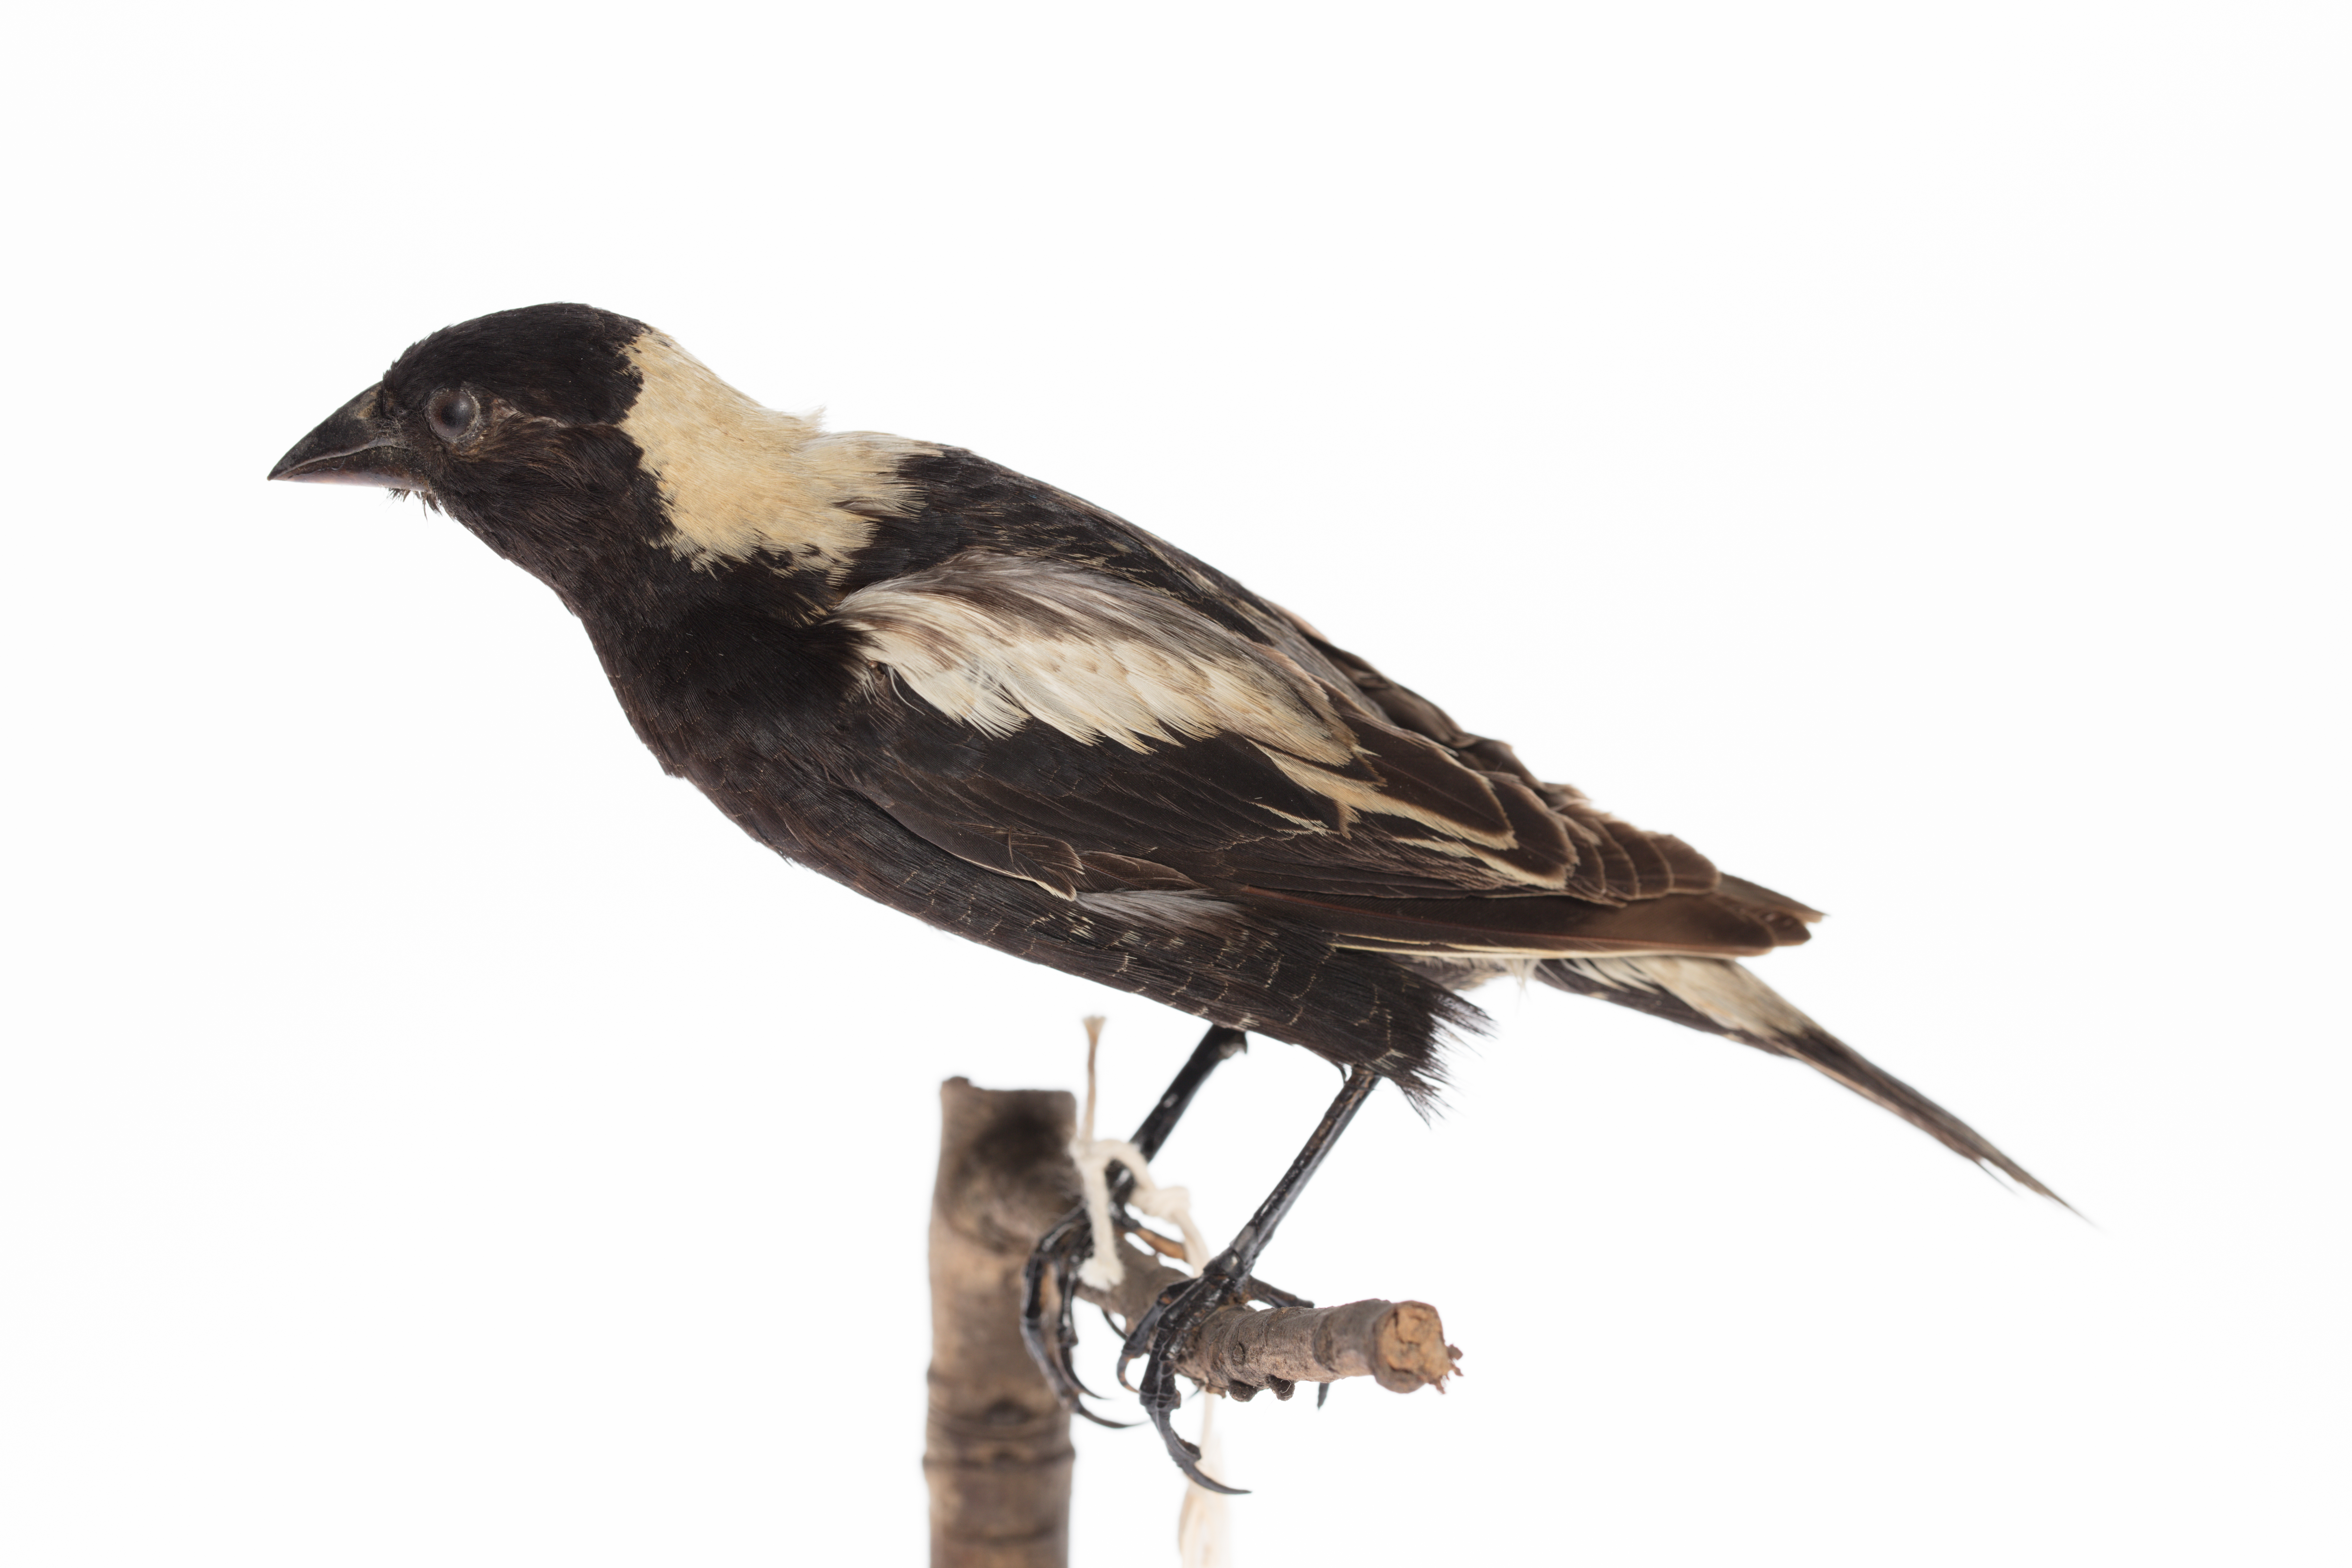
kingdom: Animalia
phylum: Chordata
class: Aves
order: Passeriformes
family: Icteridae
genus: Dolichonyx
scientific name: Dolichonyx oryzivorus
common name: Bobolink
